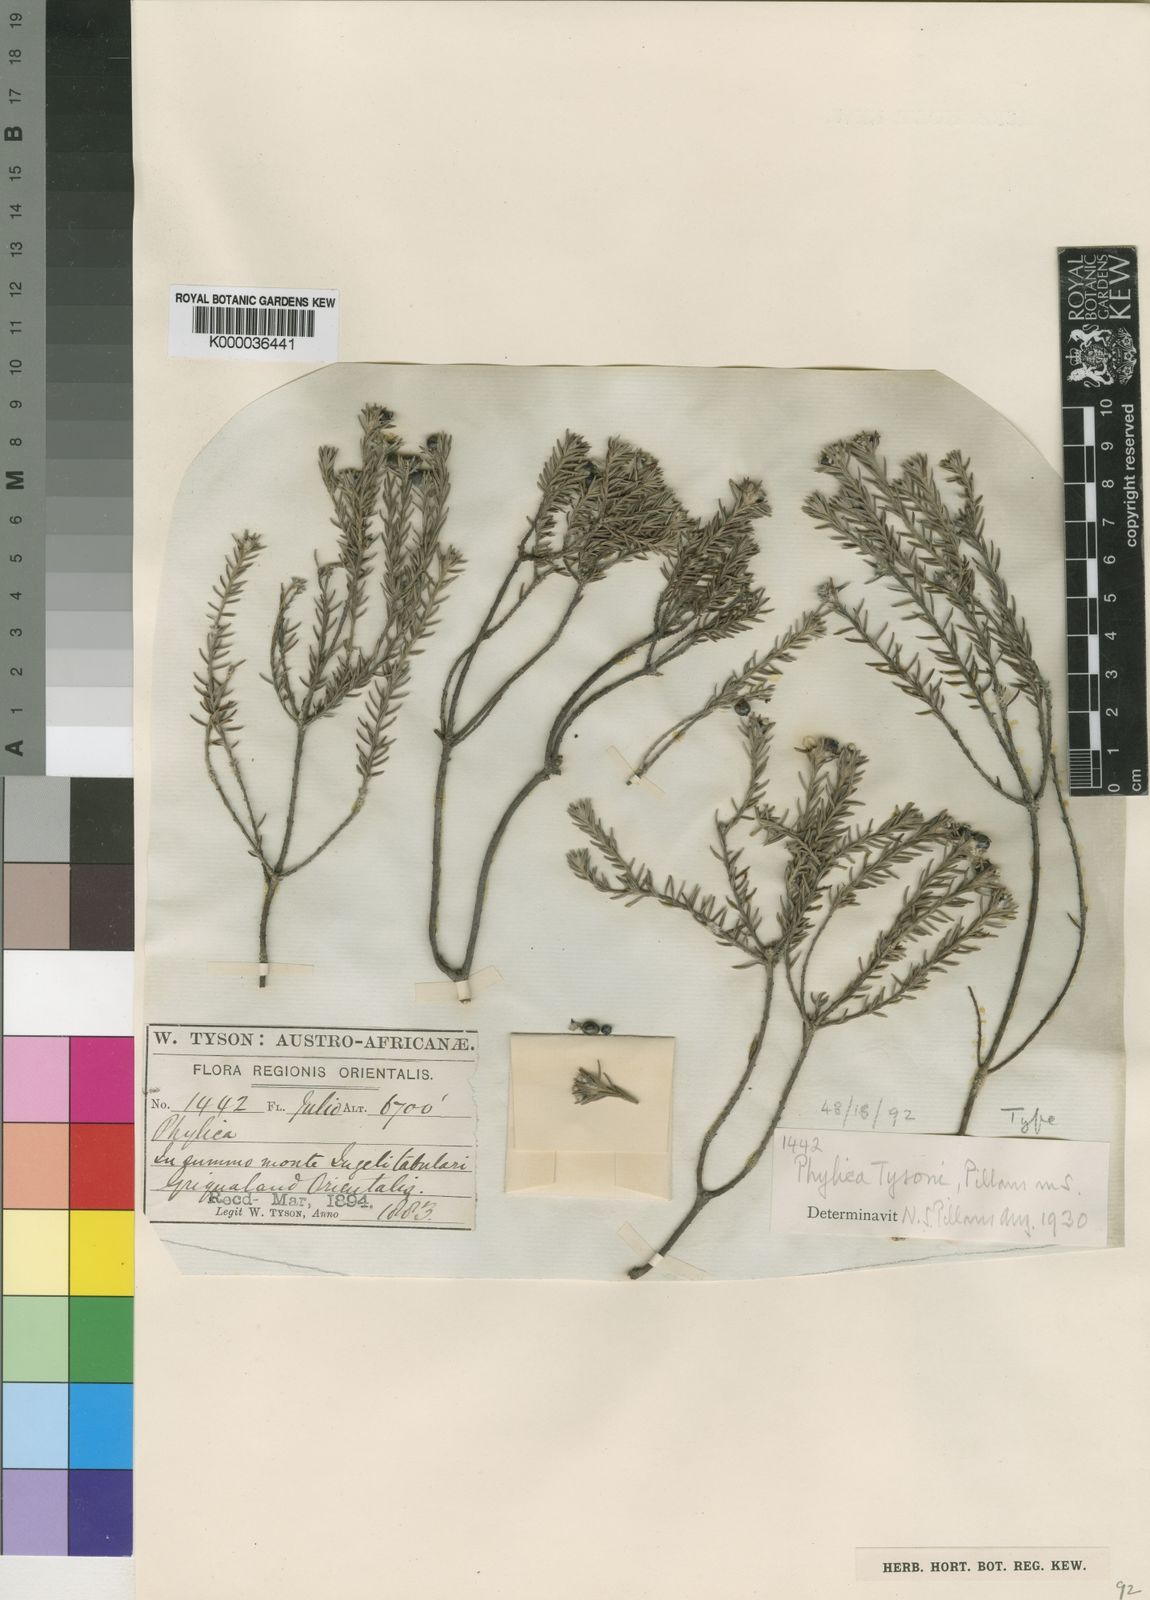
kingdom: Plantae
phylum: Tracheophyta
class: Magnoliopsida
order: Rosales
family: Rhamnaceae
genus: Phylica
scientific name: Phylica tysonii
